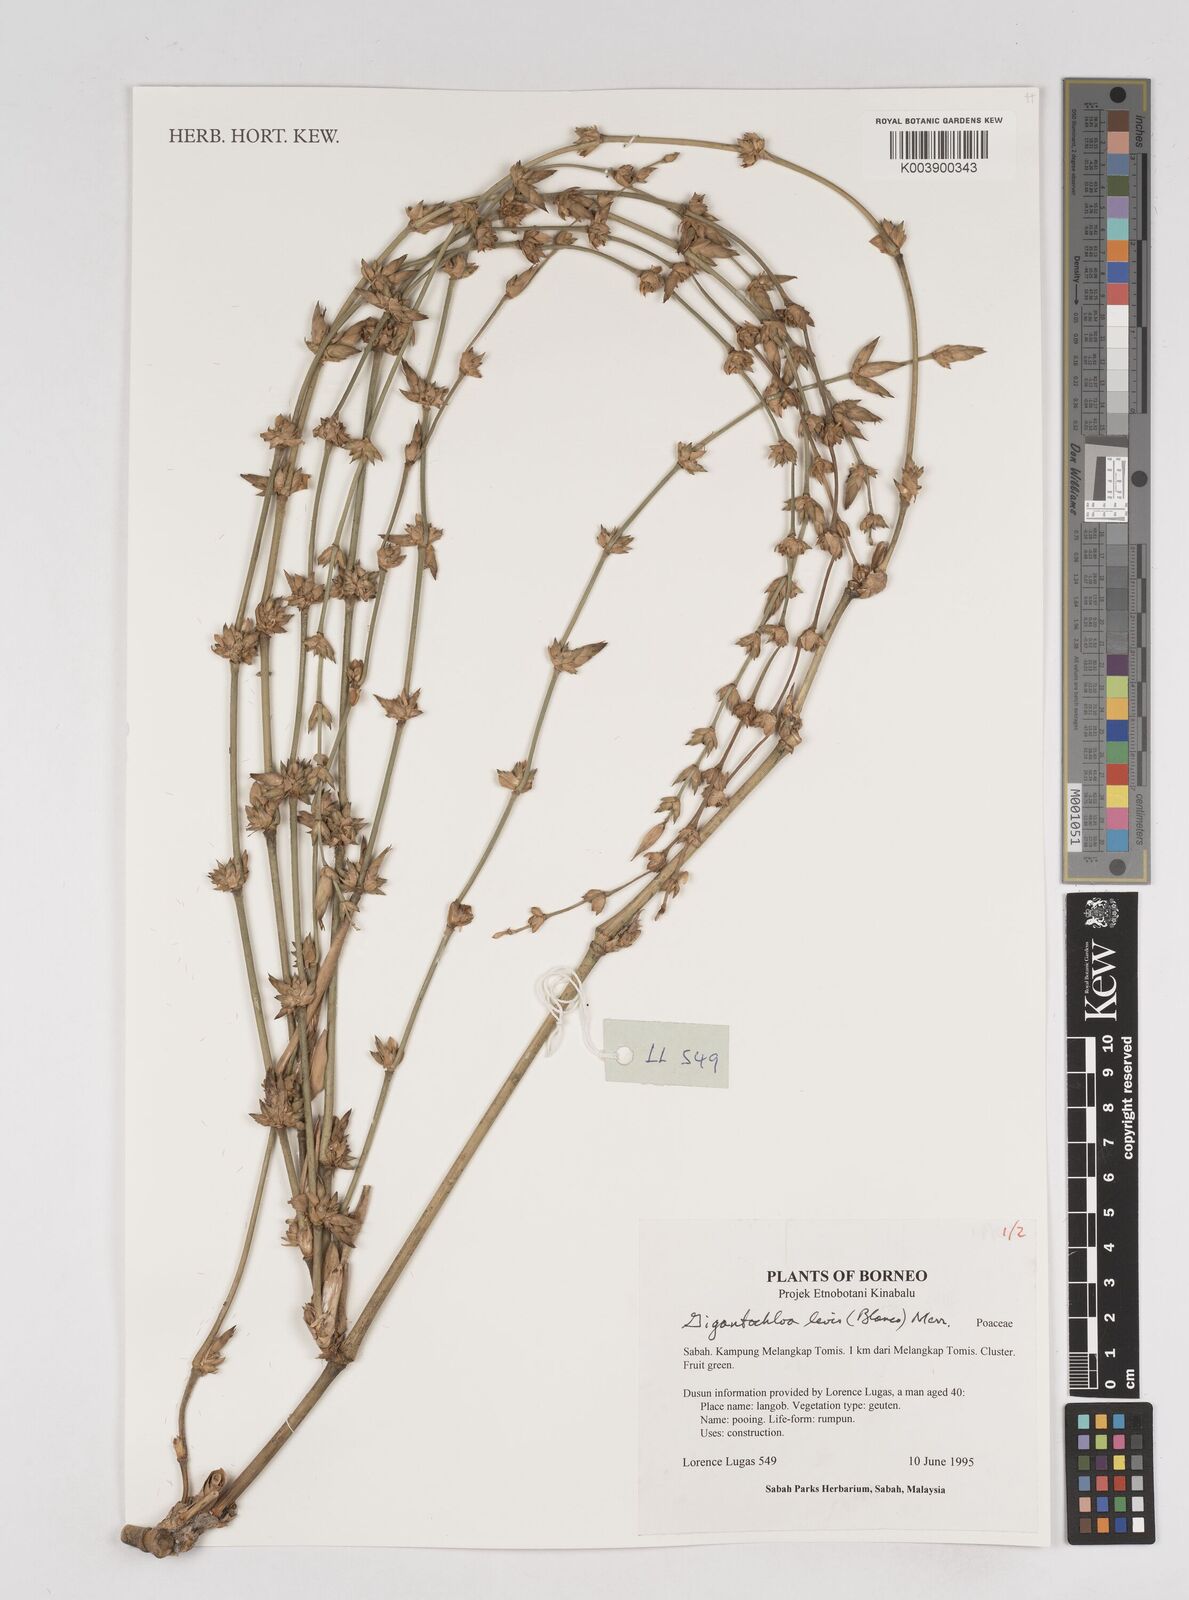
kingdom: Plantae
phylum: Tracheophyta
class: Liliopsida
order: Poales
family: Poaceae
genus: Gigantochloa
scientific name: Gigantochloa levis
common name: Smooth-shoot gigantochloa
